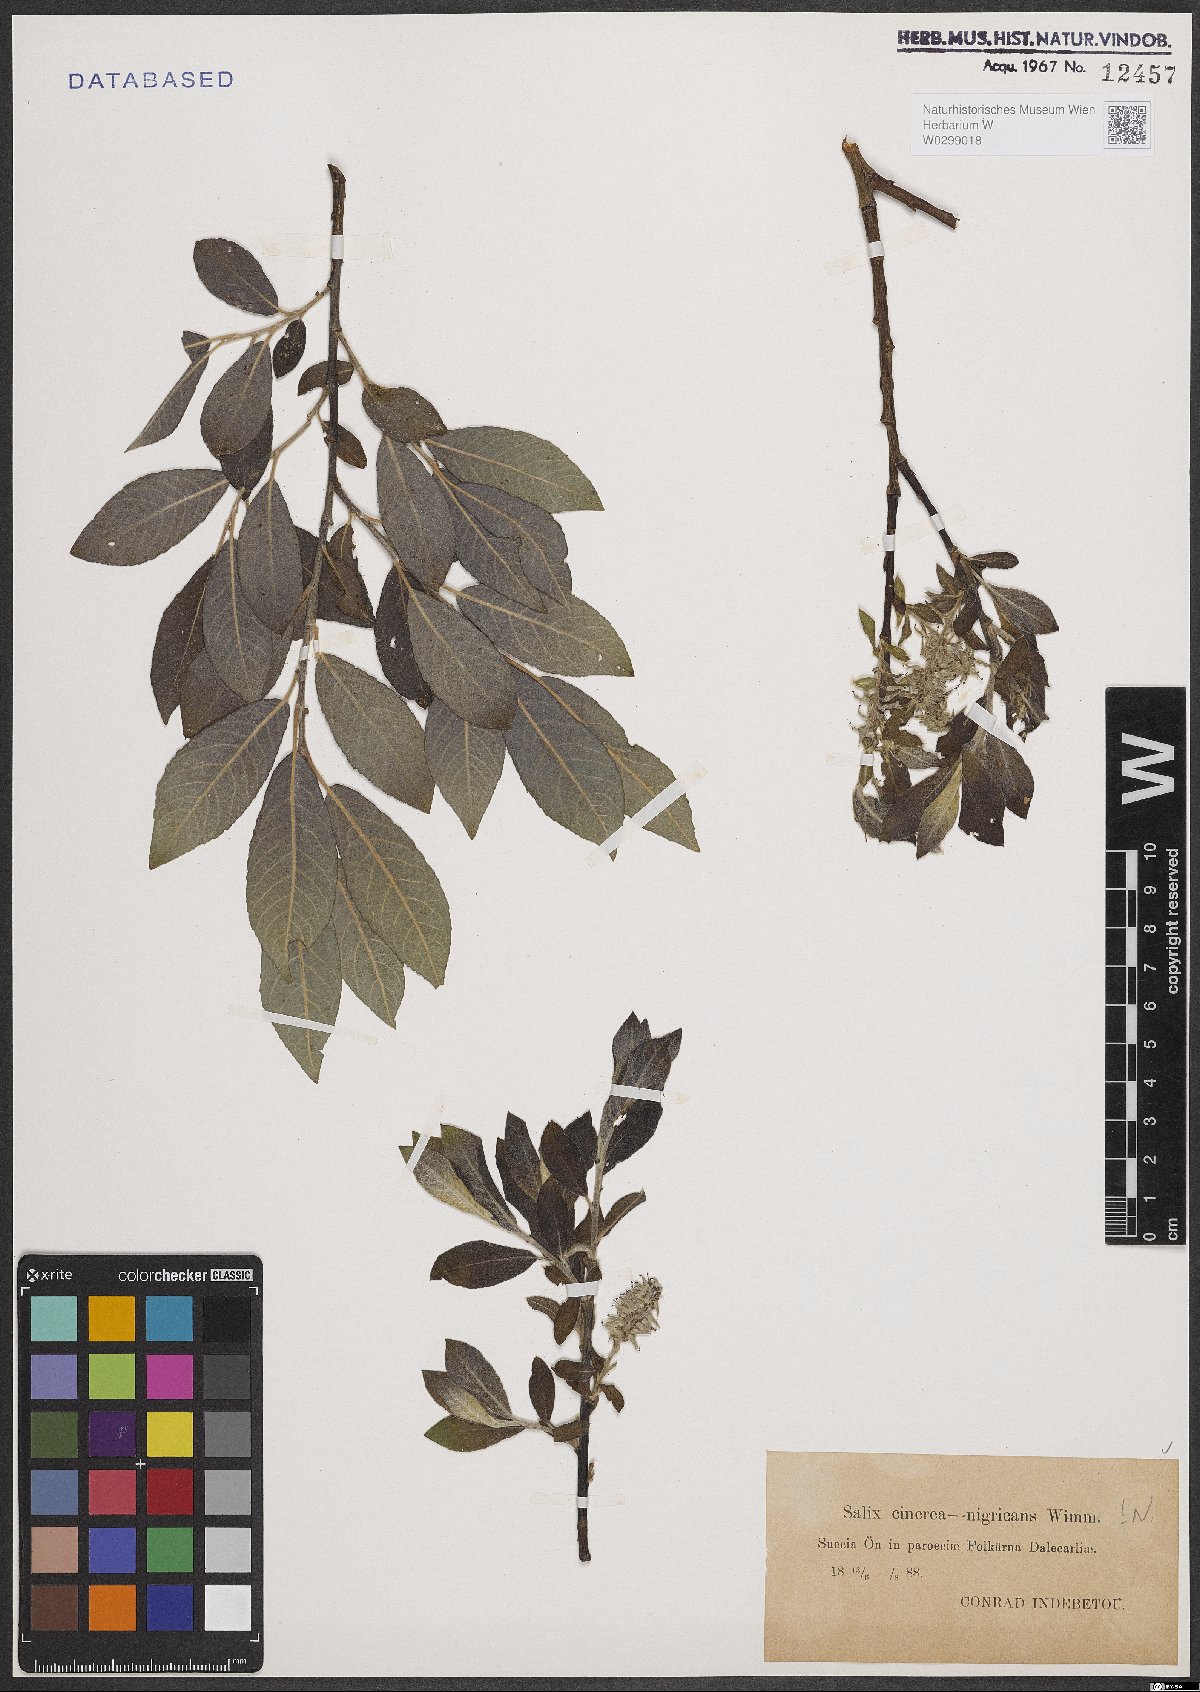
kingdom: Plantae
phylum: Tracheophyta
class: Magnoliopsida
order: Malpighiales
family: Salicaceae
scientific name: Salicaceae
